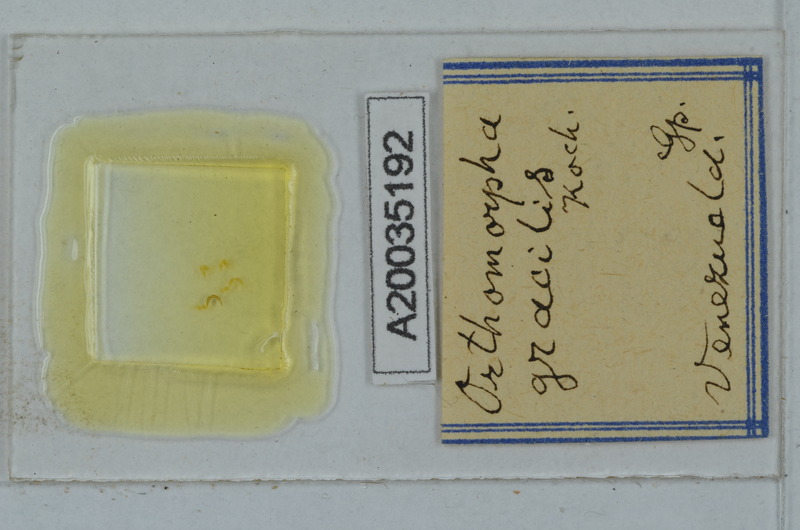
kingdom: Animalia
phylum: Arthropoda
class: Diplopoda
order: Polydesmida
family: Paradoxosomatidae
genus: Oxidus
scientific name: Oxidus gracilis
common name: Greenhouse millipede
